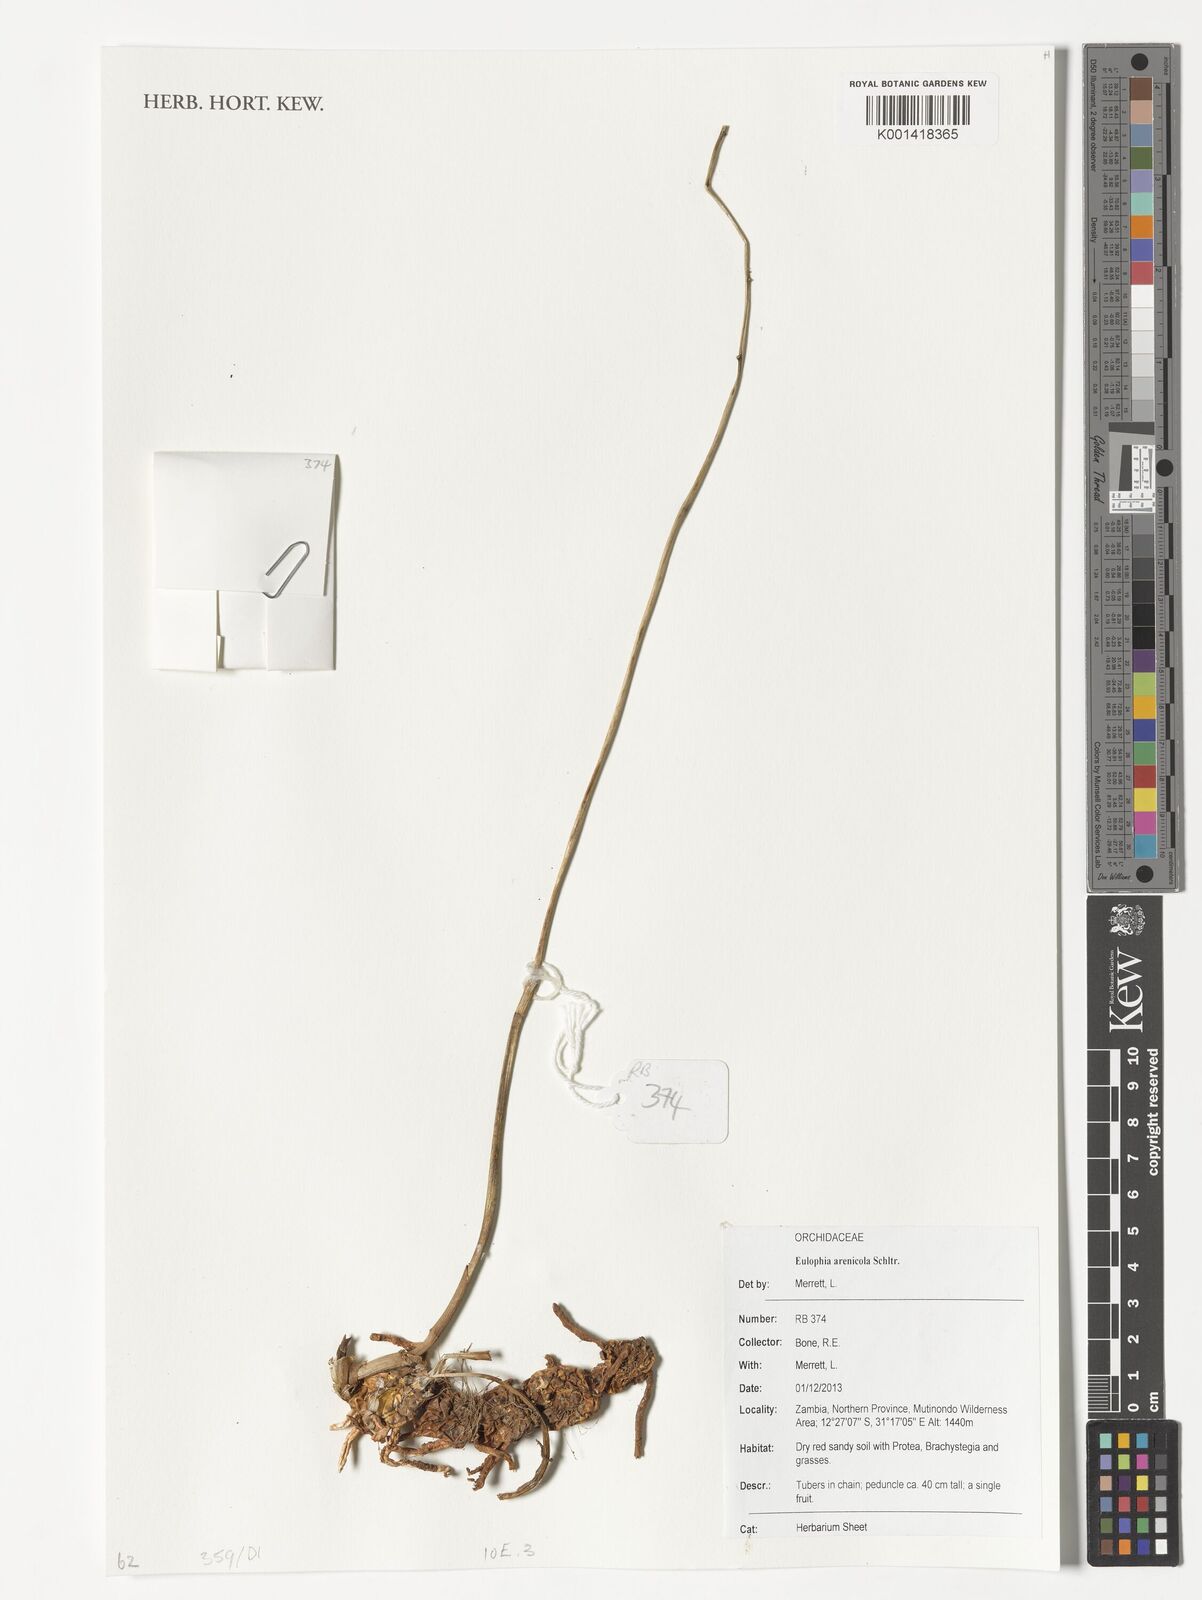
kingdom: Plantae
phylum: Tracheophyta
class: Liliopsida
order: Asparagales
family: Orchidaceae
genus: Eulophia
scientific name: Eulophia arenicola
